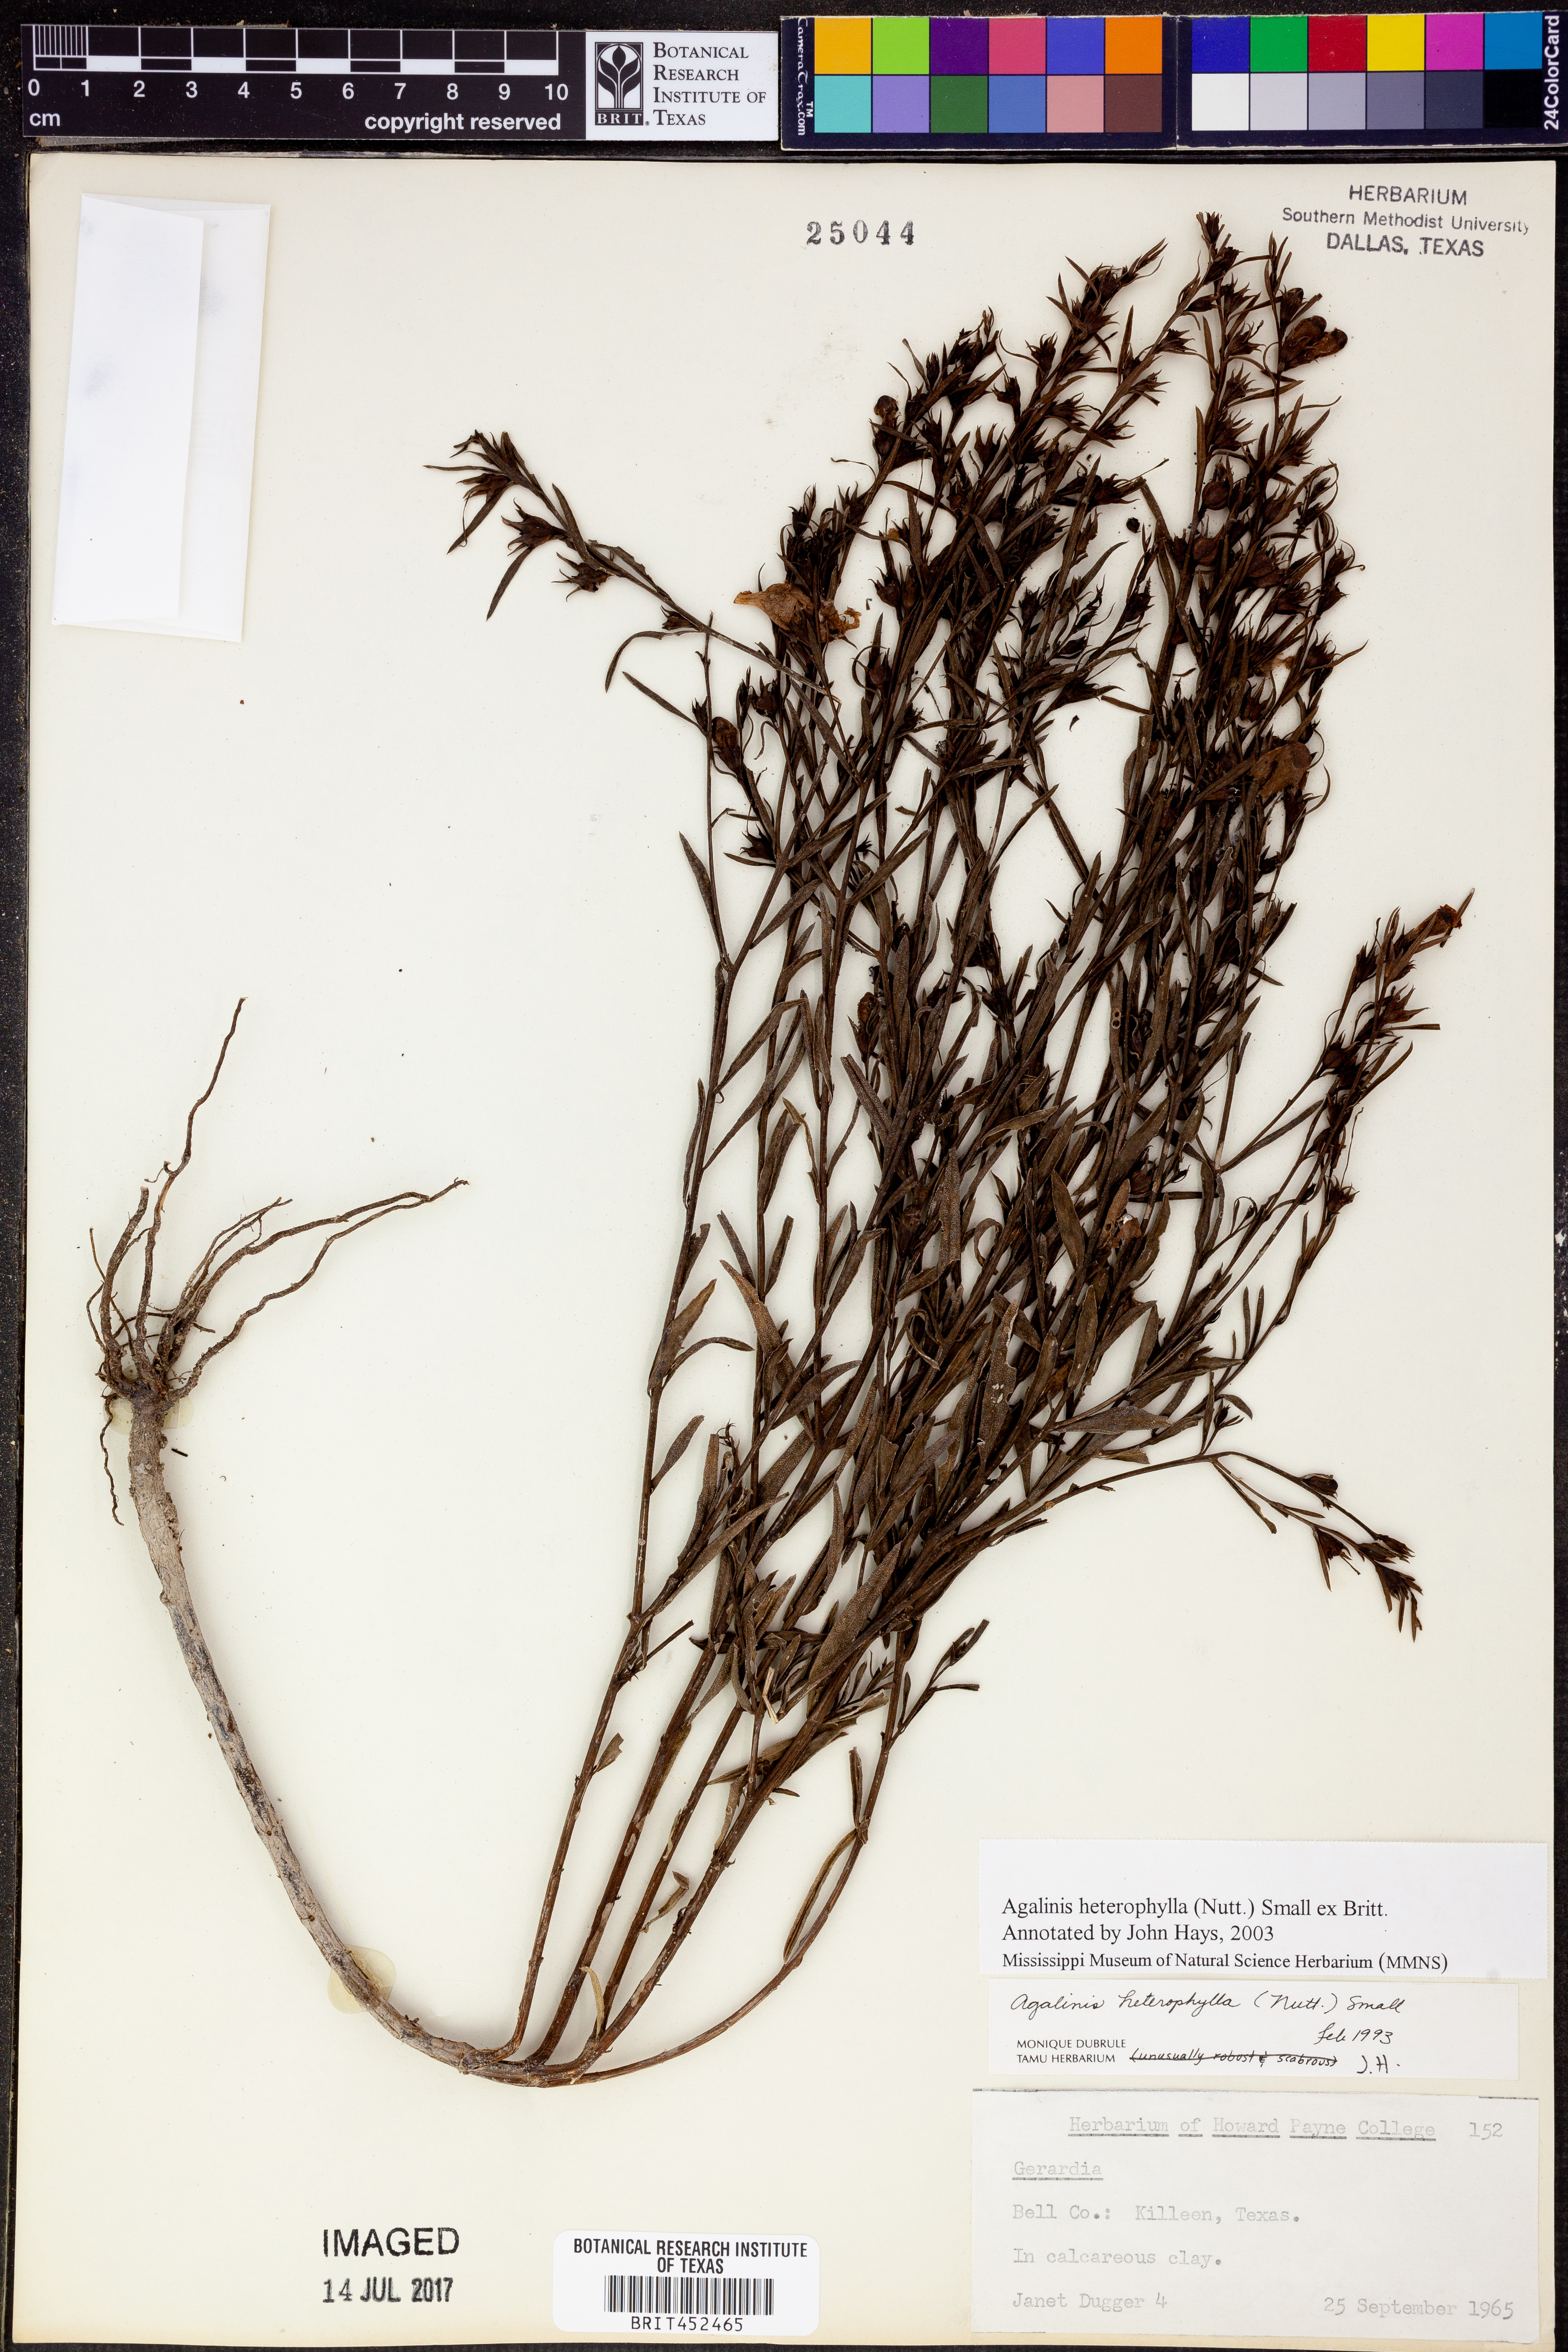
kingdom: Plantae
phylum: Tracheophyta
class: Magnoliopsida
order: Lamiales
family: Orobanchaceae
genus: Agalinis
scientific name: Agalinis heterophylla
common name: Prairie agalinis
